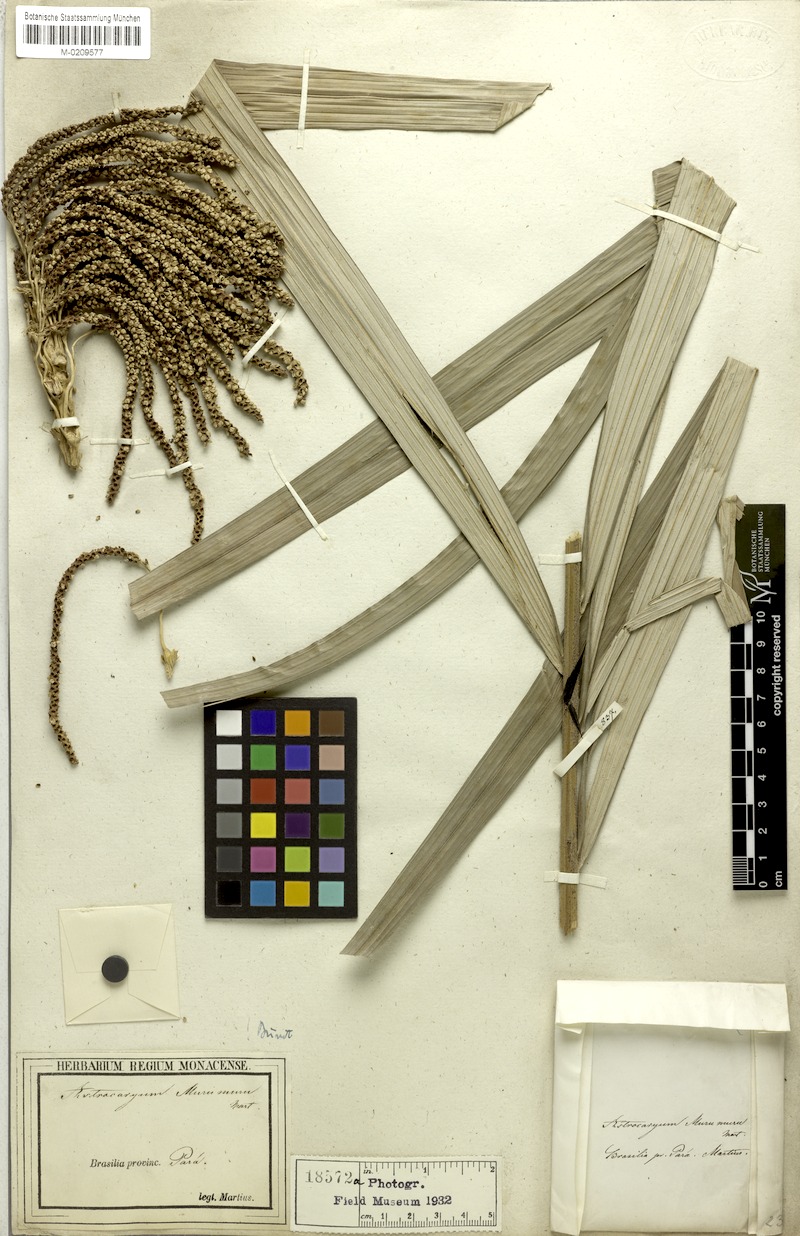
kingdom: Plantae
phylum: Tracheophyta
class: Liliopsida
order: Arecales
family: Arecaceae
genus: Astrocaryum
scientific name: Astrocaryum murumuru
